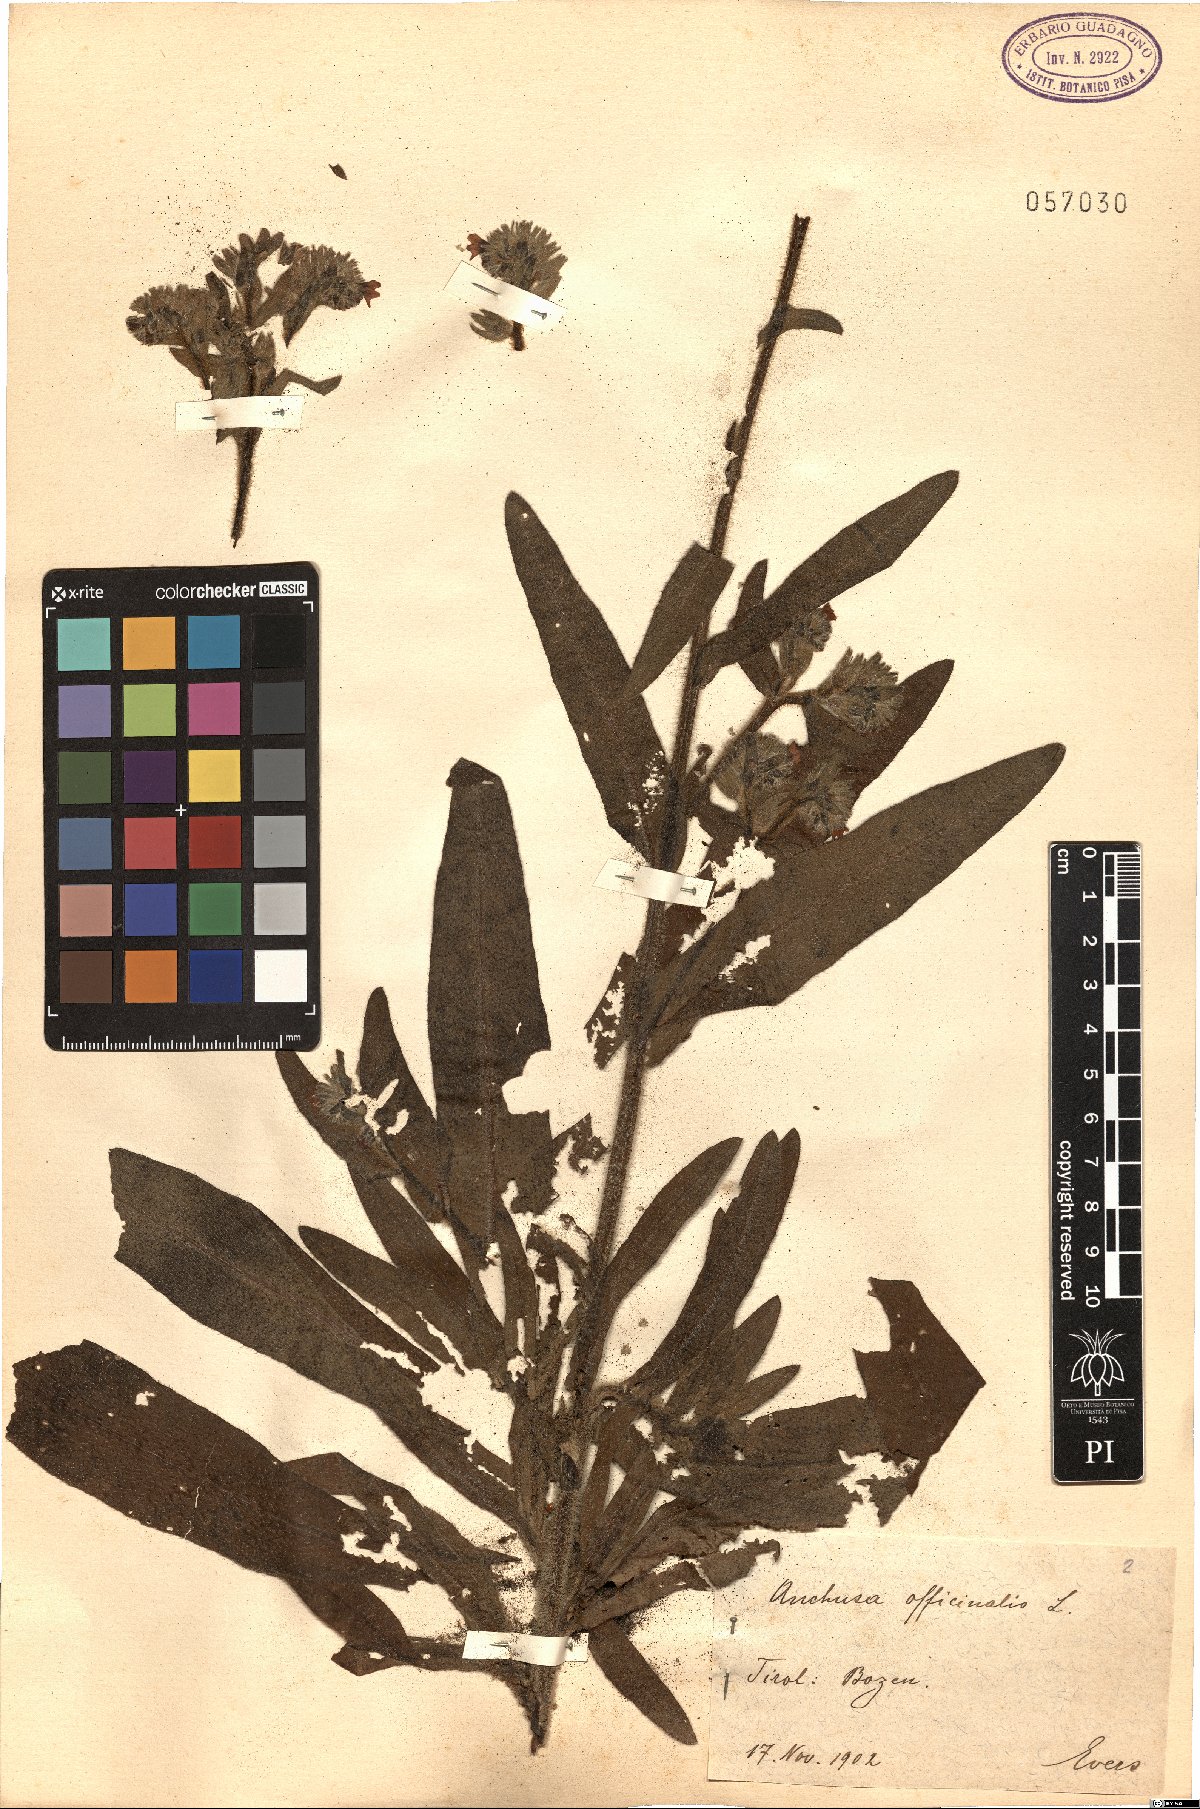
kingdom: Plantae
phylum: Tracheophyta
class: Magnoliopsida
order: Boraginales
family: Boraginaceae
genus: Anchusa
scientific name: Anchusa officinalis
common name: Alkanet
